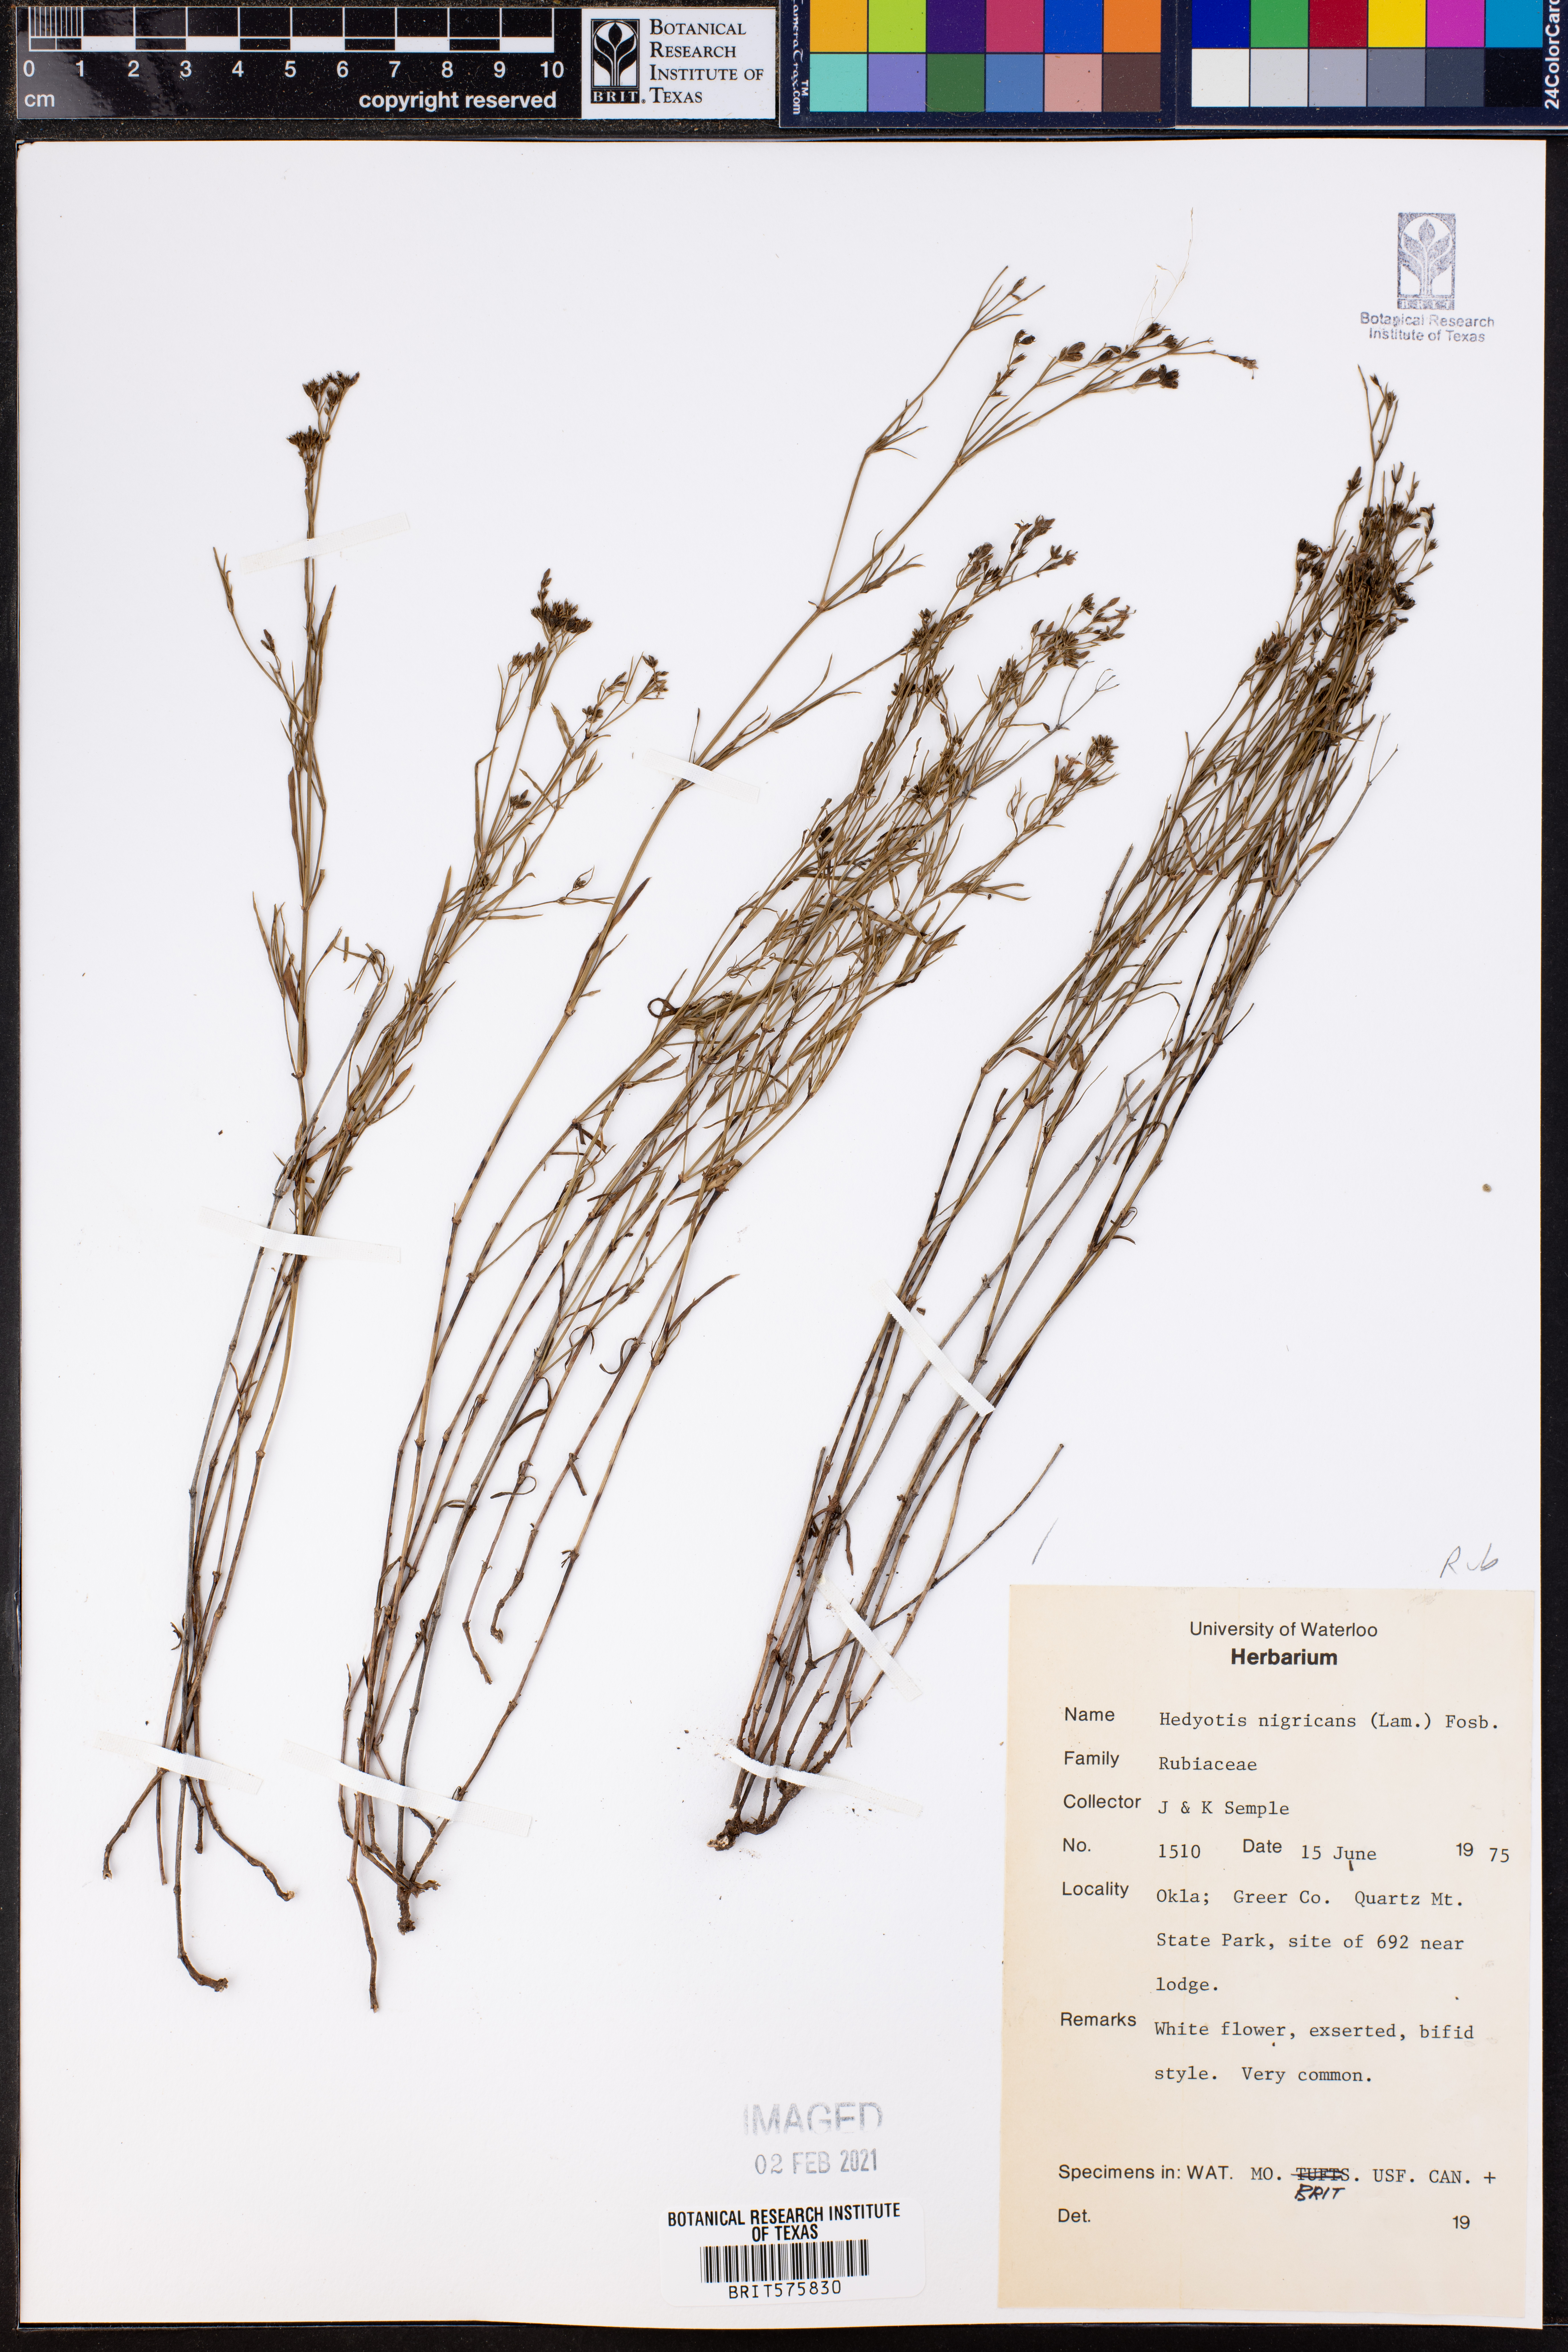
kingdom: Plantae
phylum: Tracheophyta
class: Magnoliopsida
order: Gentianales
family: Rubiaceae
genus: Stenaria
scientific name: Stenaria nigricans
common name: Diamondflowers
